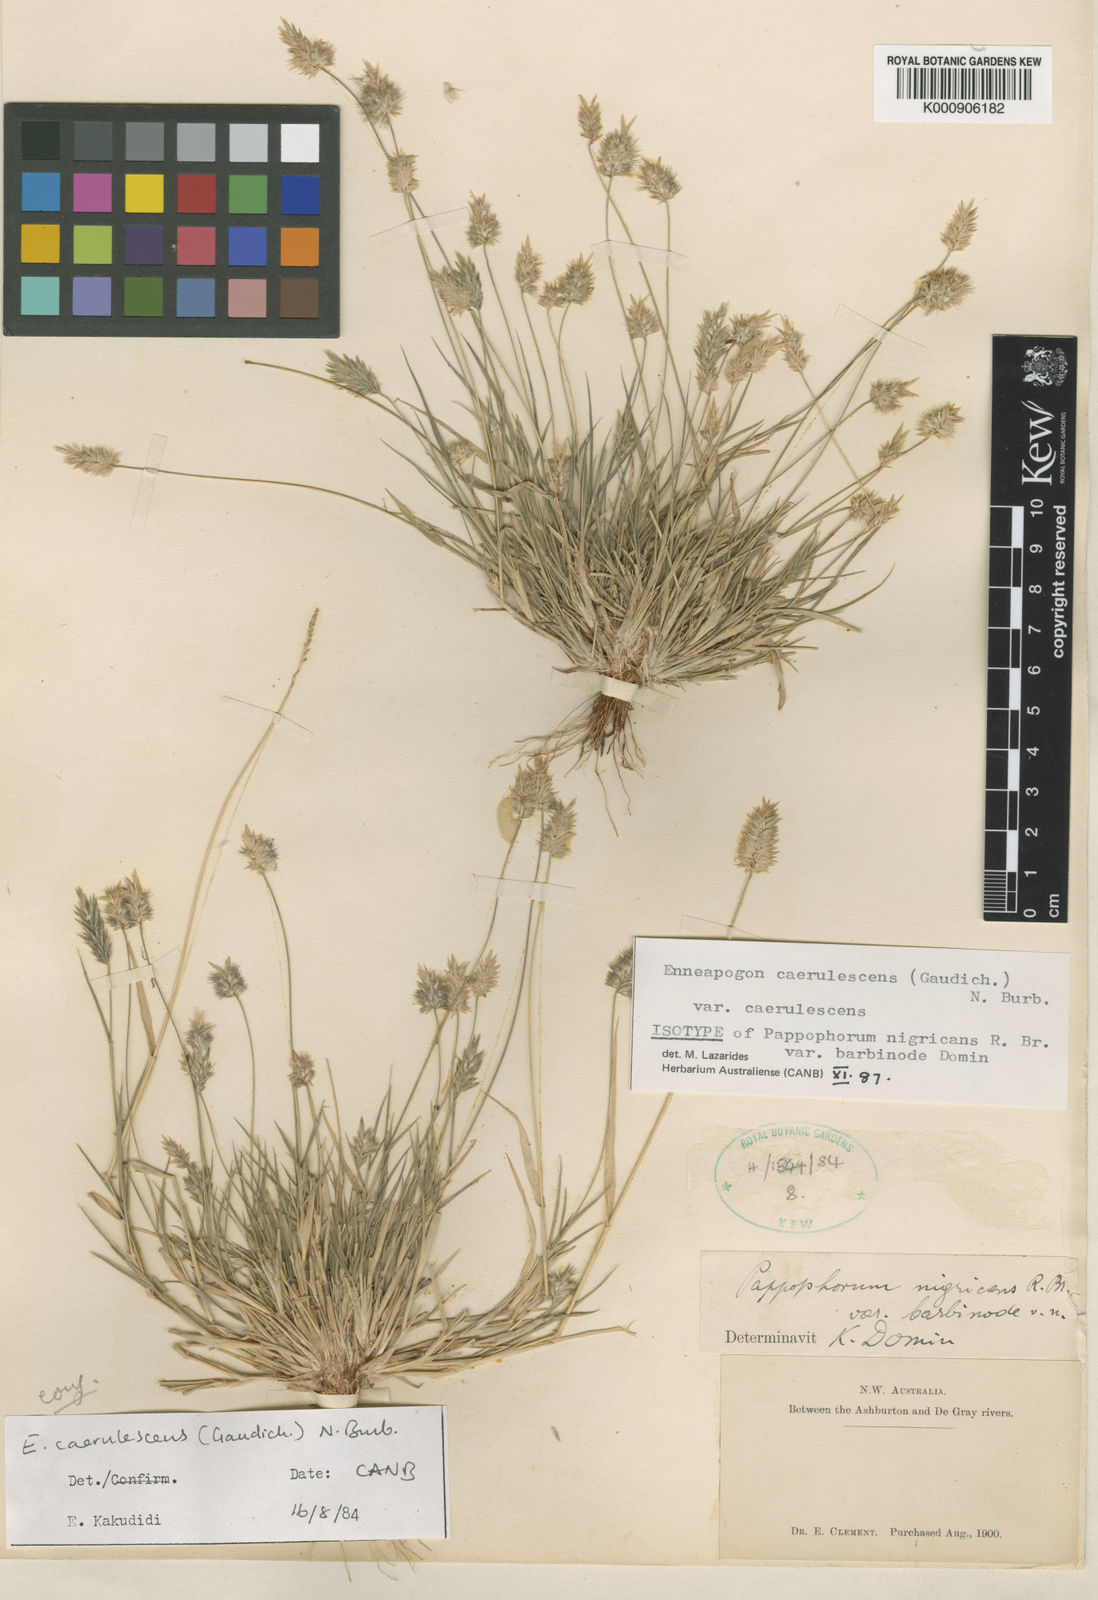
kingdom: Plantae
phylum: Tracheophyta
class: Liliopsida
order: Poales
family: Poaceae
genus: Enneapogon
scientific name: Enneapogon caerulescens
